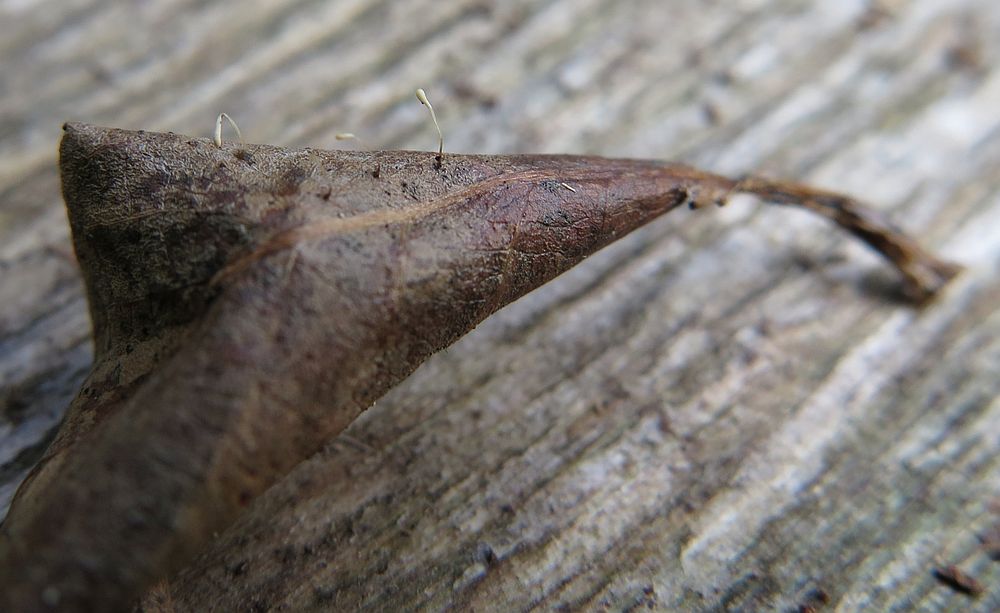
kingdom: Fungi
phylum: Basidiomycota
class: Agaricomycetes
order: Agaricales
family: Typhulaceae
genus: Typhula
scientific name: Typhula setipes
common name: liden trådkølle
